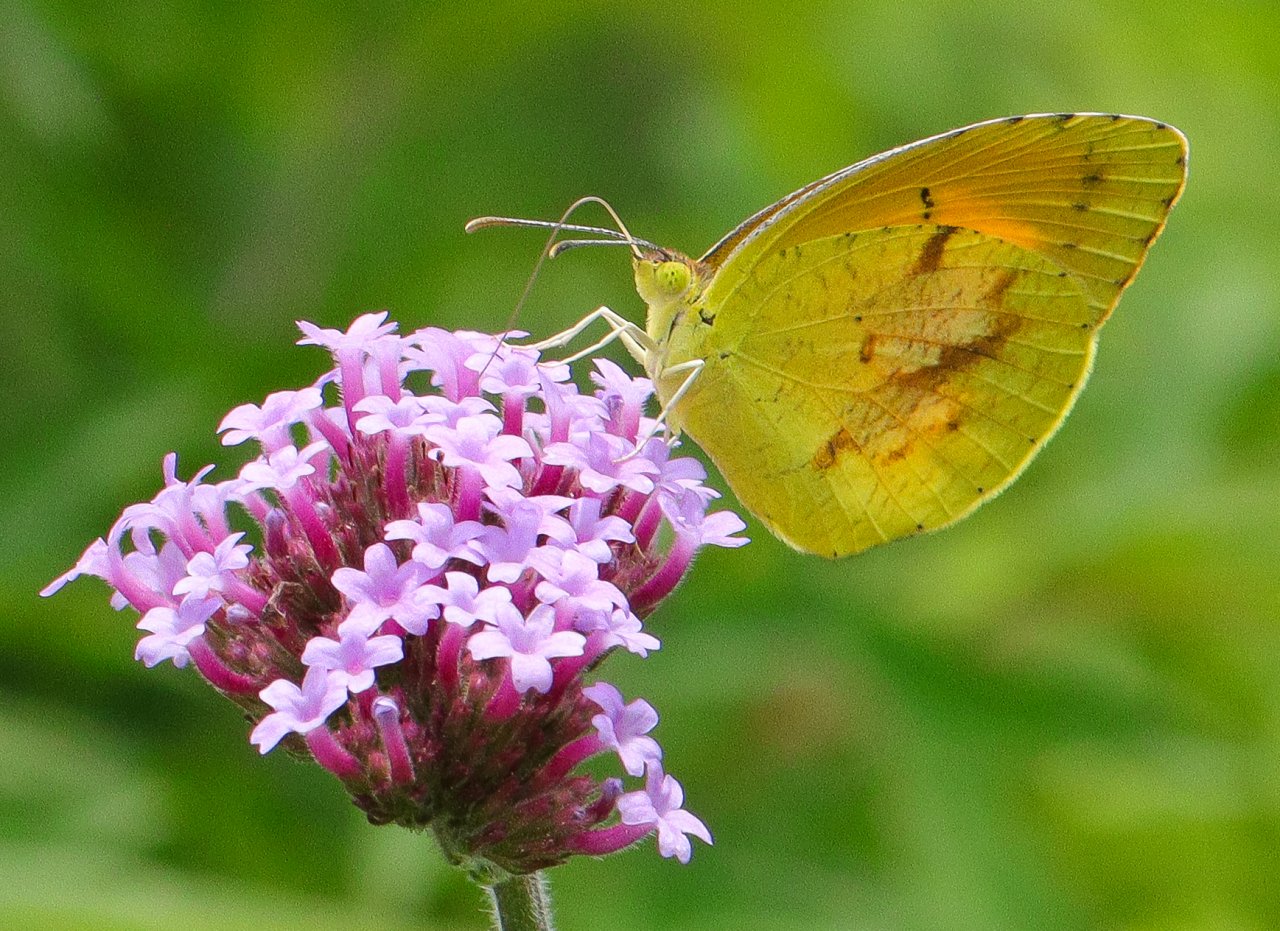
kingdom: Animalia
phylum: Arthropoda
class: Insecta
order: Lepidoptera
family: Pieridae
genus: Abaeis
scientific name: Abaeis nicippe
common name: Sleepy Orange
